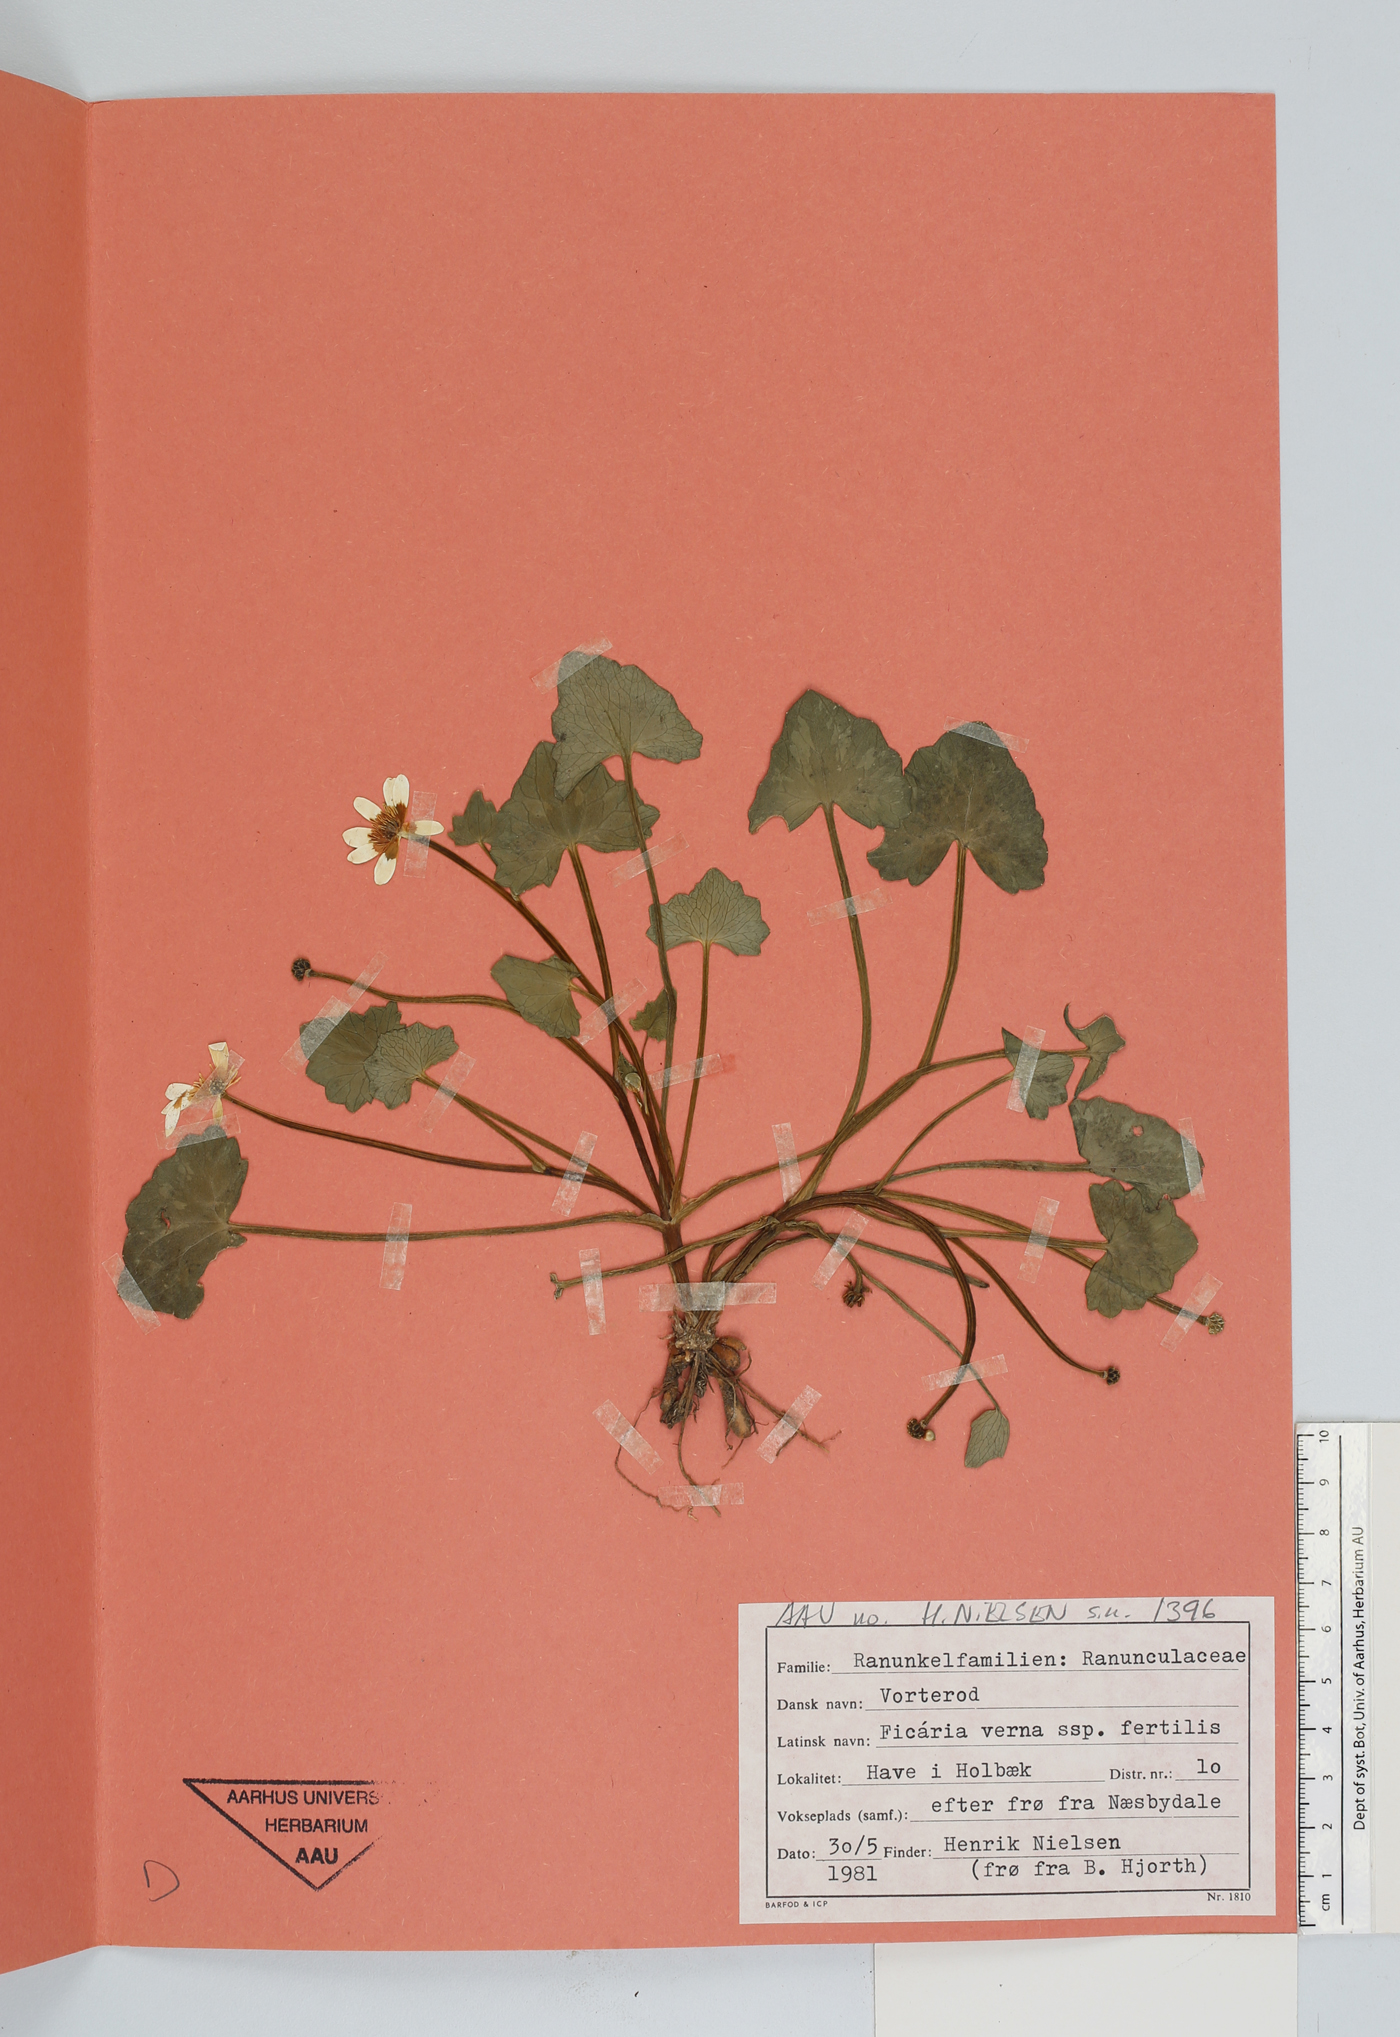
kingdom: Plantae
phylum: Tracheophyta
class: Magnoliopsida
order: Ranunculales
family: Ranunculaceae
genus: Ficaria
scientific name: Ficaria verna
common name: Lesser celandine
